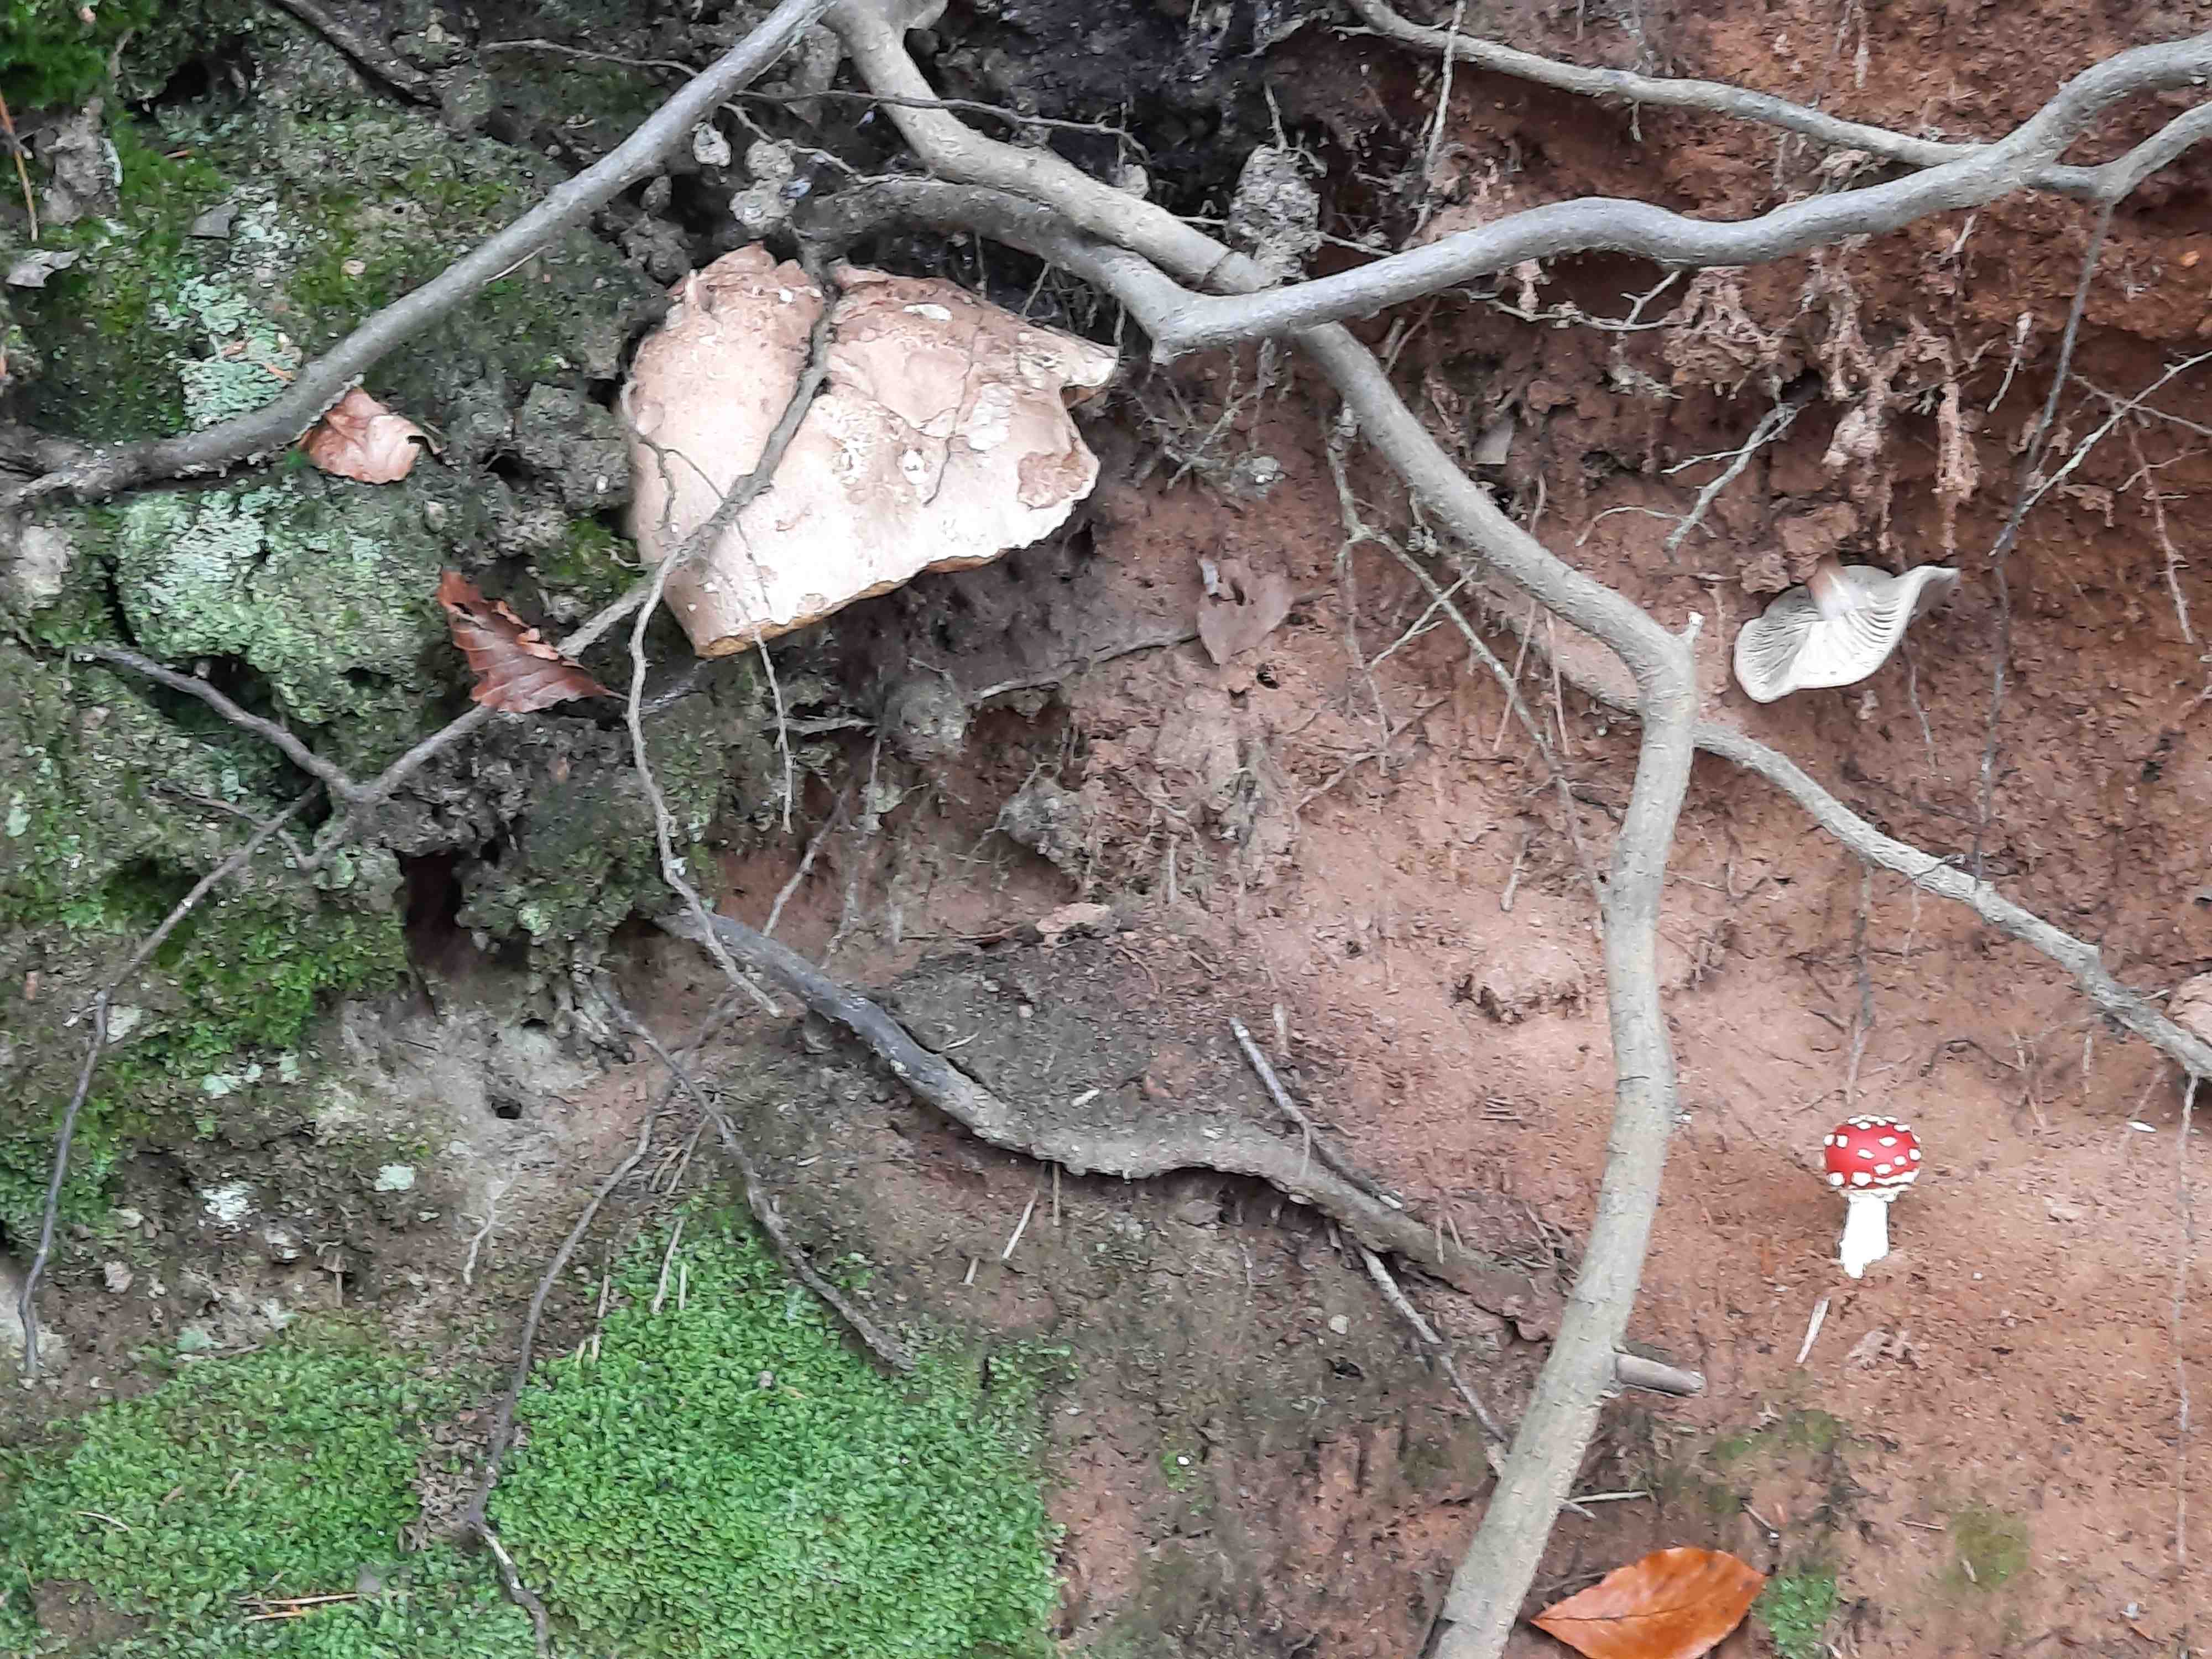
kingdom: Fungi
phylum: Basidiomycota
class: Agaricomycetes
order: Boletales
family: Boletaceae
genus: Caloboletus
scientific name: Caloboletus calopus
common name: skønfodet rørhat
